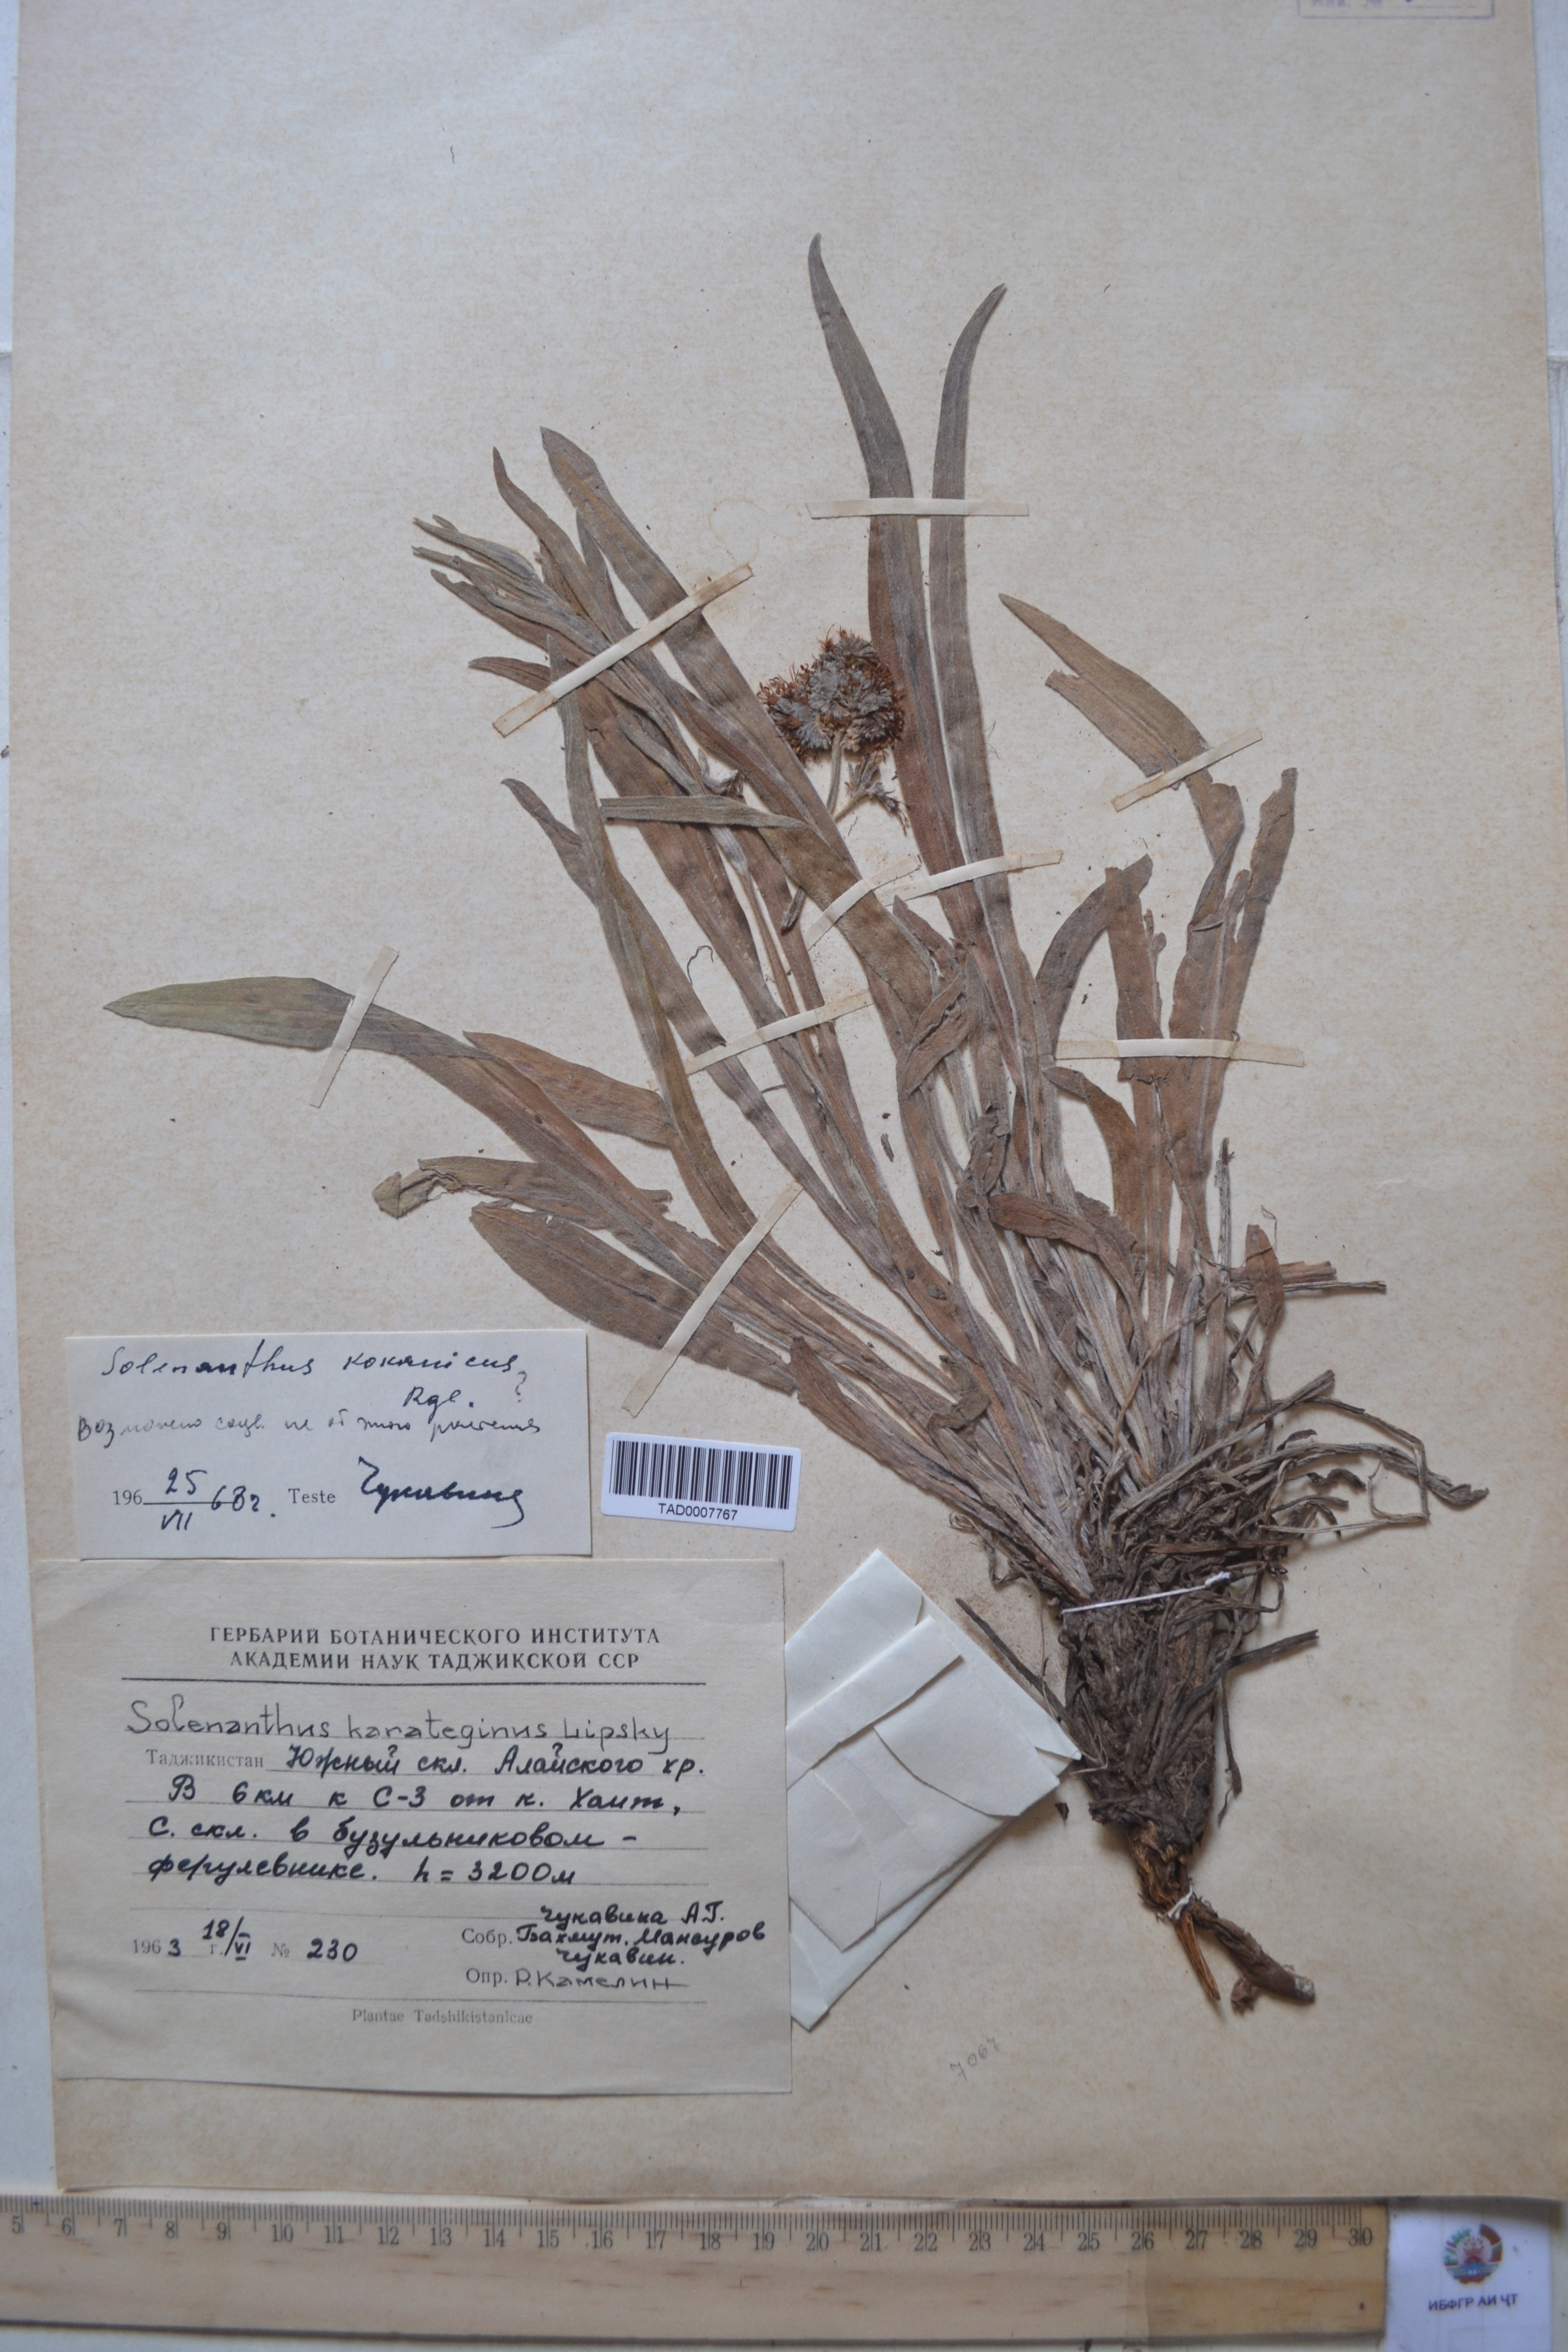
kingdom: Plantae
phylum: Tracheophyta
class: Magnoliopsida
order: Boraginales
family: Boraginaceae
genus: Solenanthus
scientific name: Solenanthus karateginus
